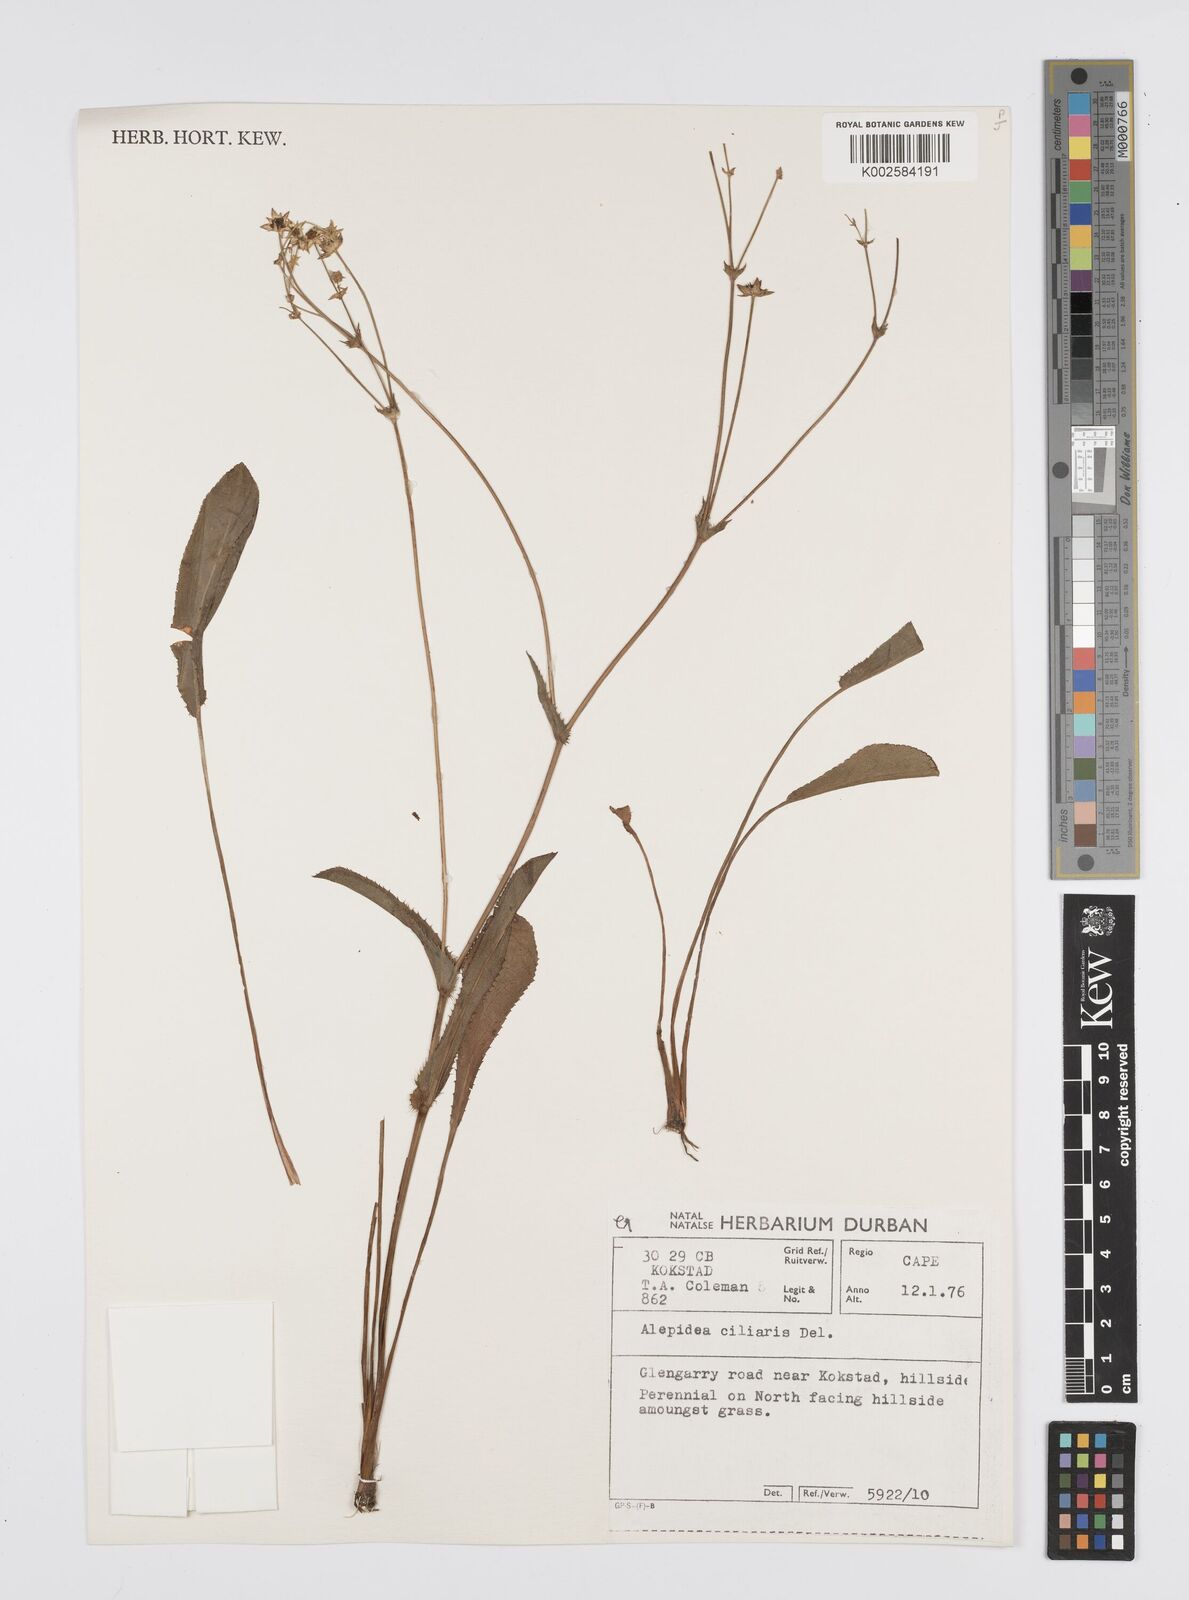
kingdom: Plantae
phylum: Tracheophyta
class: Magnoliopsida
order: Apiales
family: Apiaceae
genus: Alepidea
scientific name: Alepidea capensis
